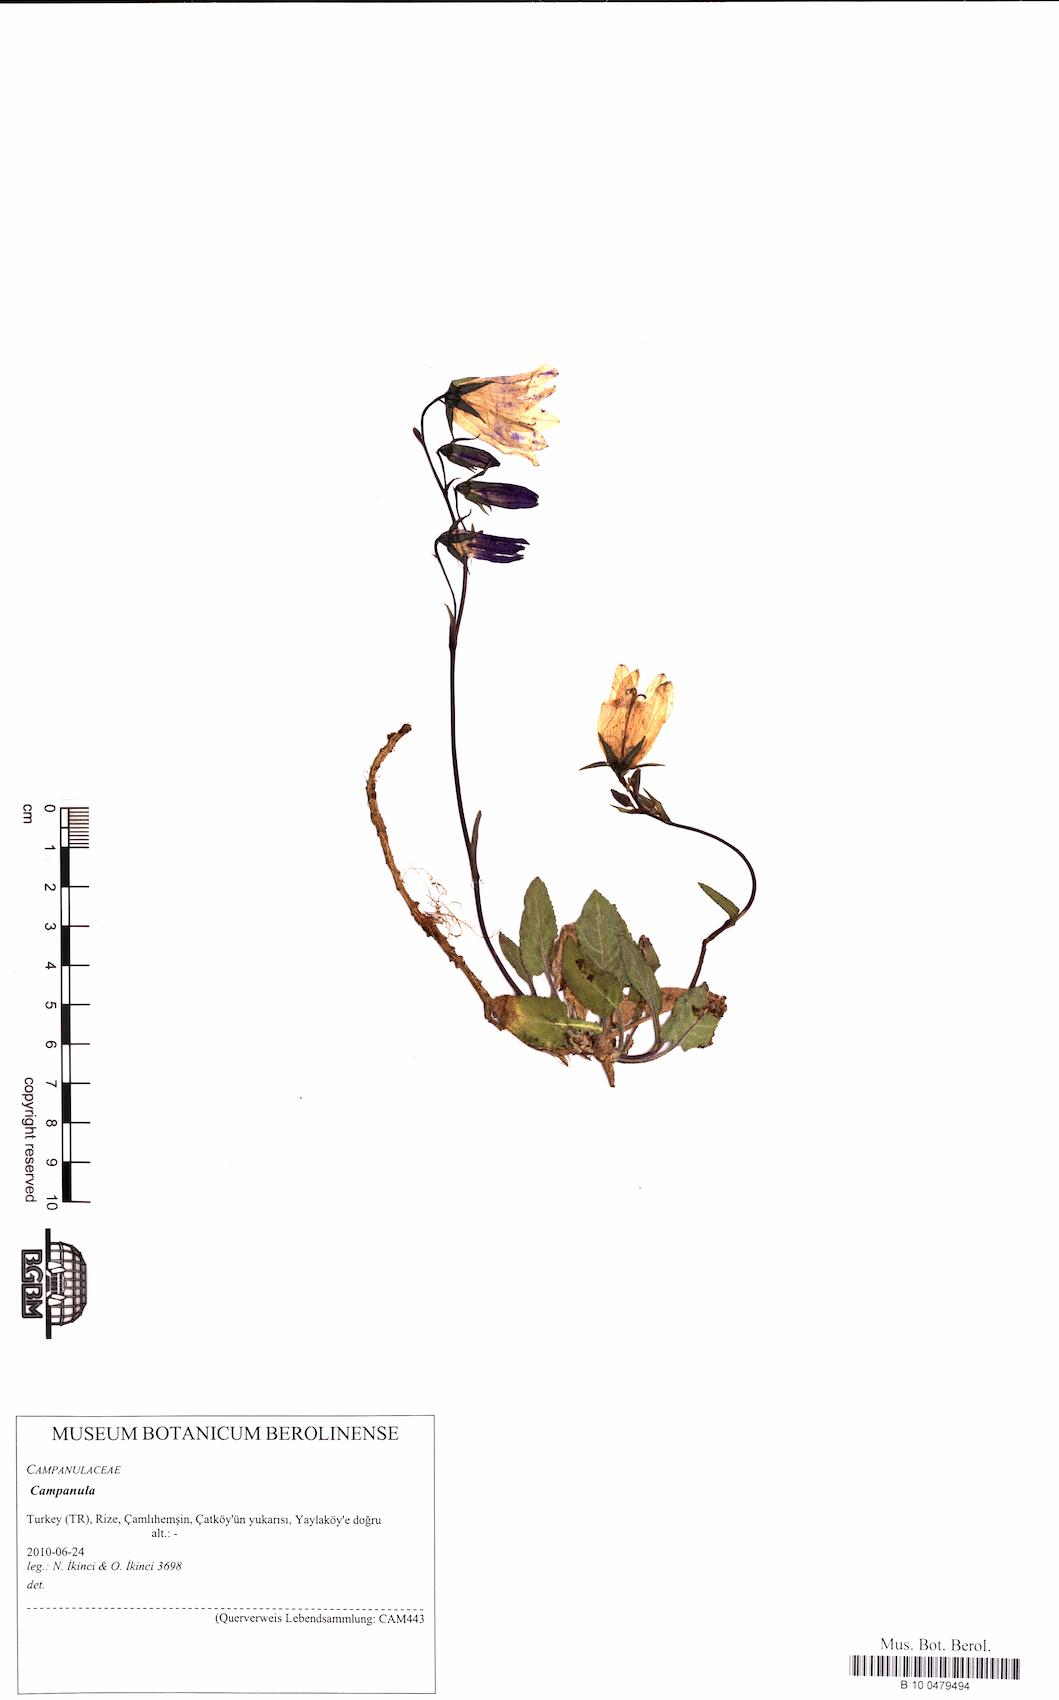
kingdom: Plantae
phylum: Tracheophyta
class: Magnoliopsida
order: Asterales
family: Campanulaceae
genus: Campanula
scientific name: Campanula
